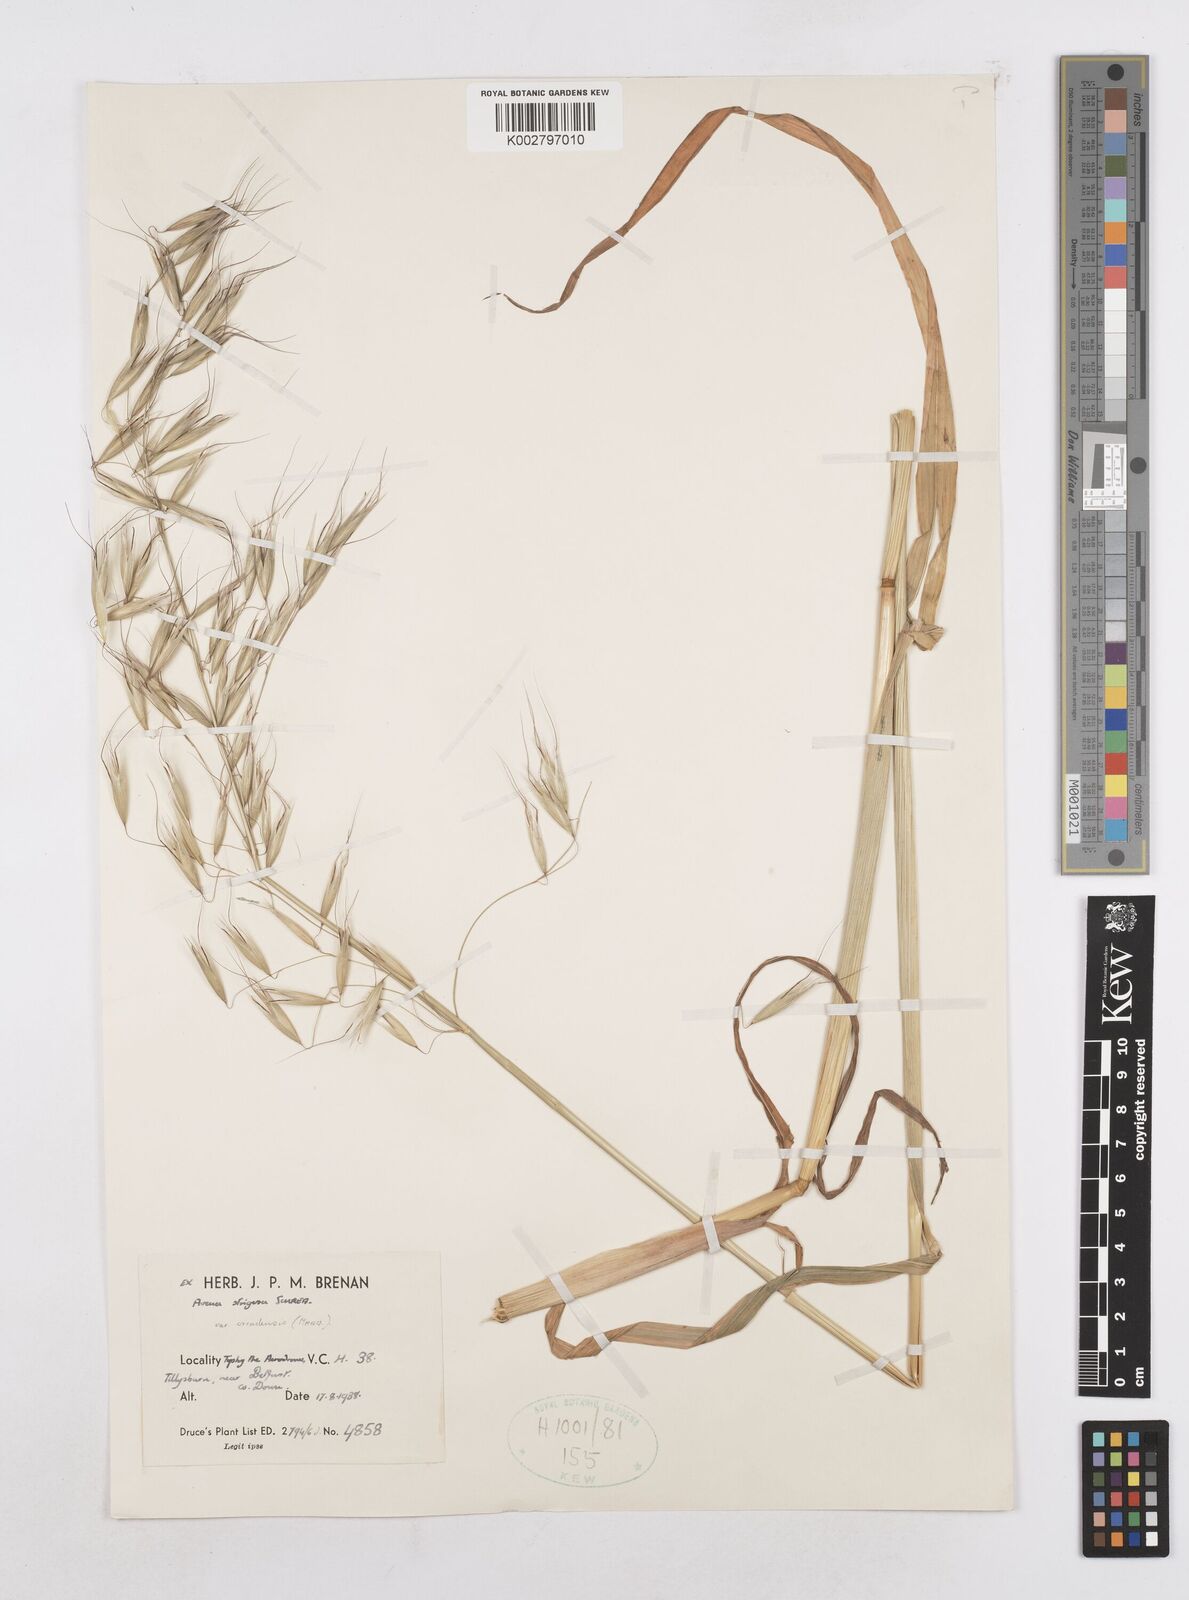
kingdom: Plantae
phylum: Tracheophyta
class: Liliopsida
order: Poales
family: Poaceae
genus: Avena
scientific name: Avena strigosa
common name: Bristle oat
